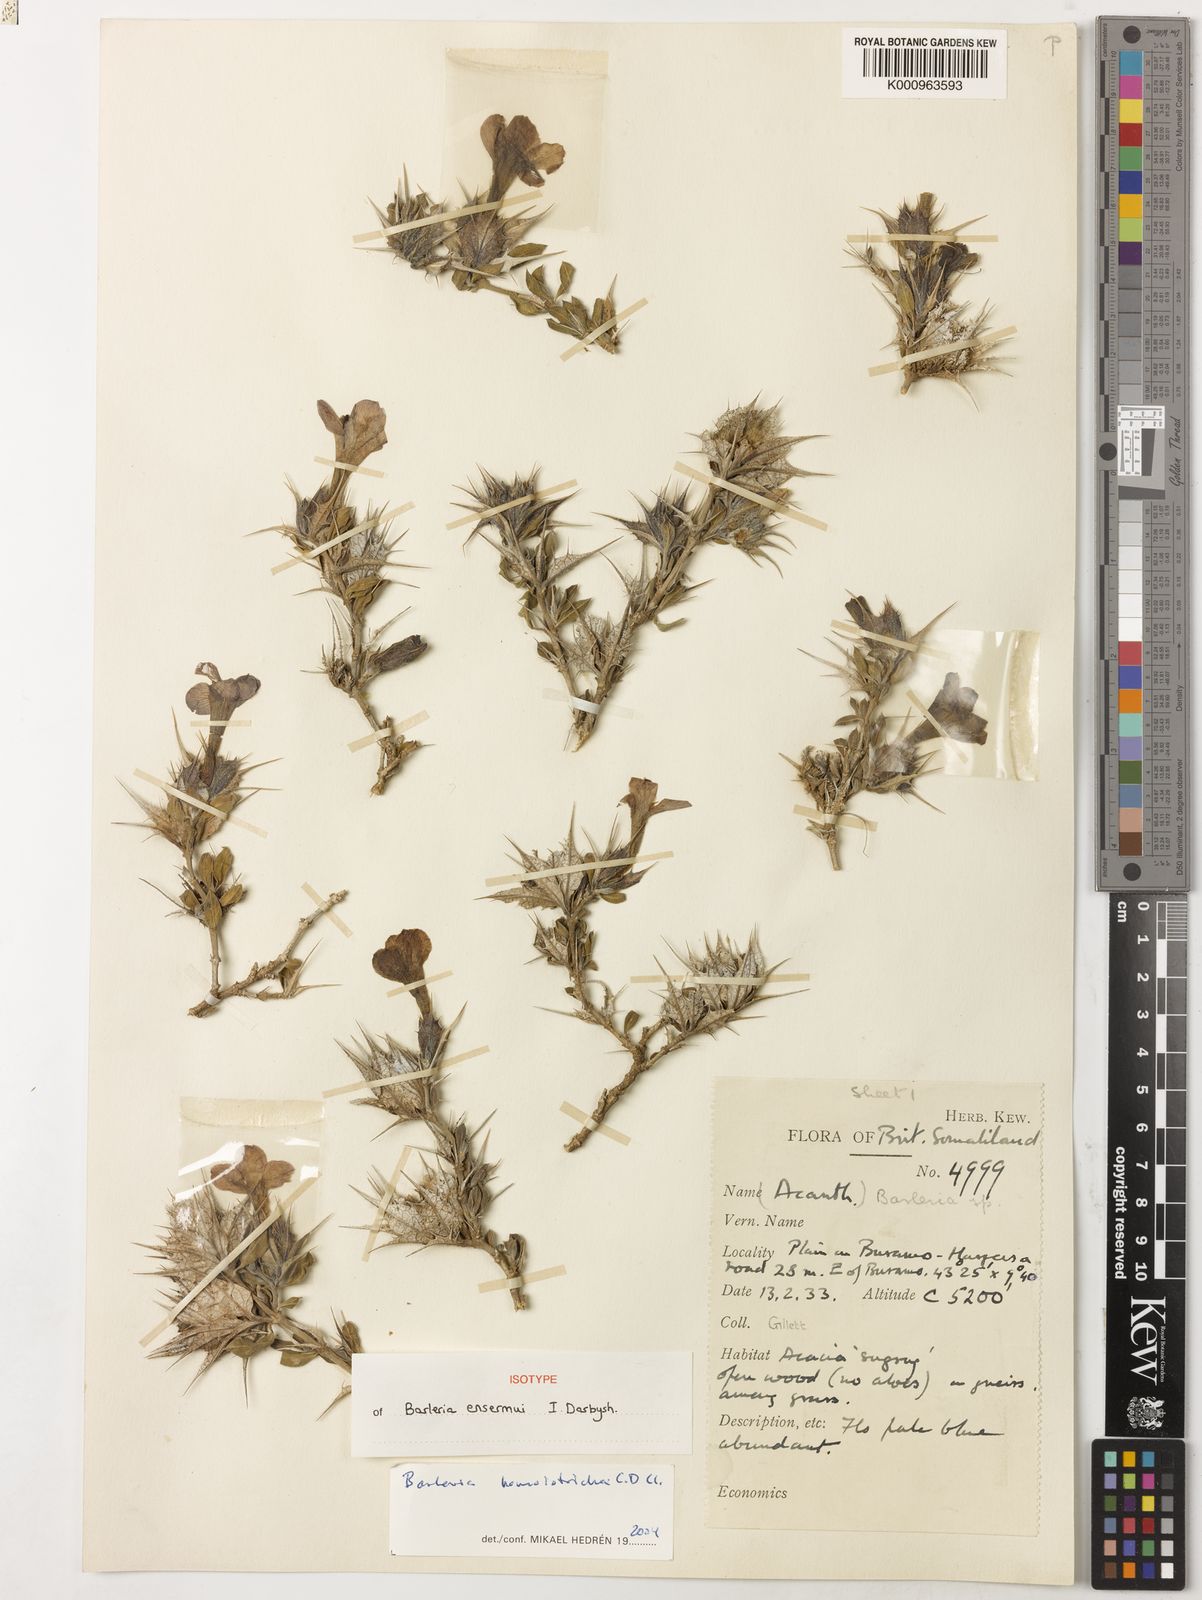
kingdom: Plantae
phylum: Tracheophyta
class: Magnoliopsida
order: Lamiales
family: Acanthaceae
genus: Barleria
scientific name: Barleria ensermui
